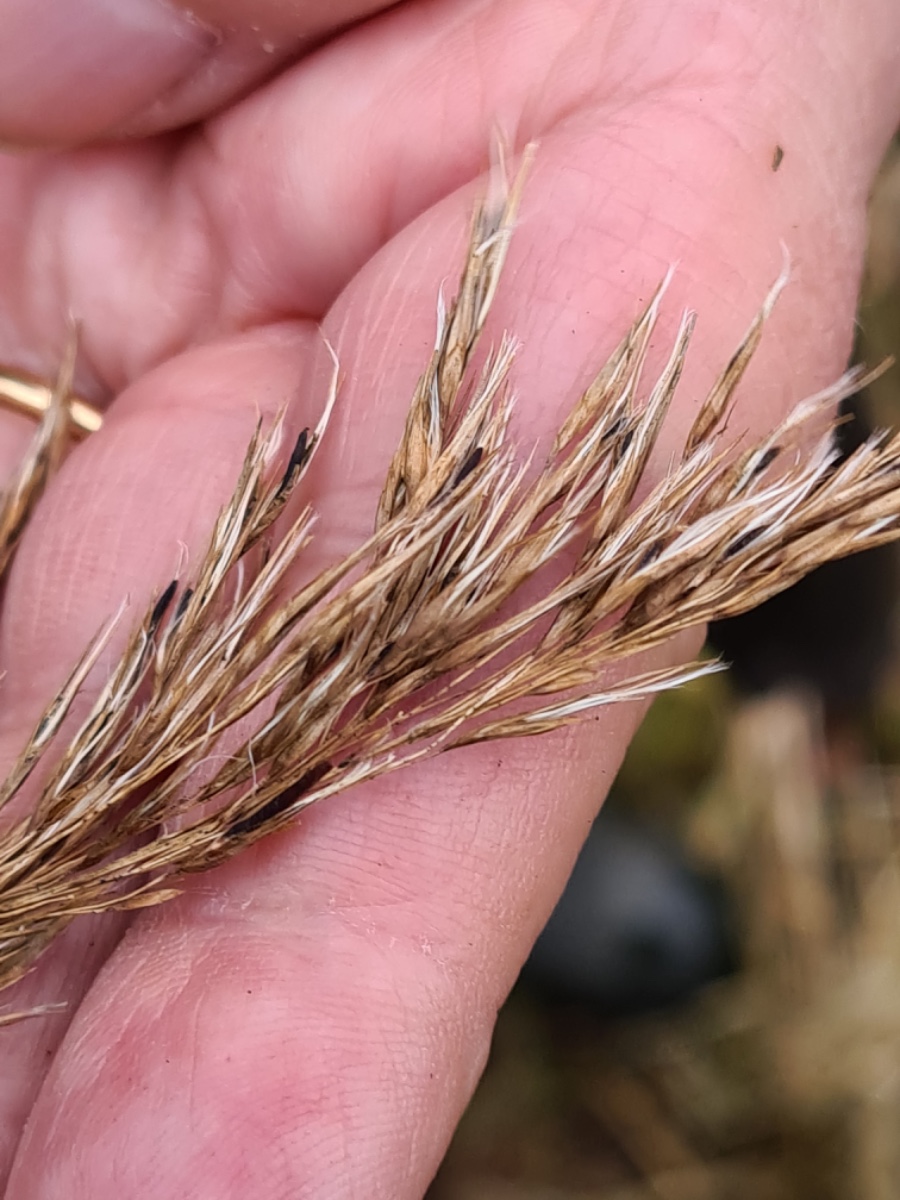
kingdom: Fungi
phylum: Ascomycota
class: Sordariomycetes
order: Hypocreales
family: Clavicipitaceae
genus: Claviceps
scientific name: Claviceps arundinis
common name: tagrør-meldrøjer
